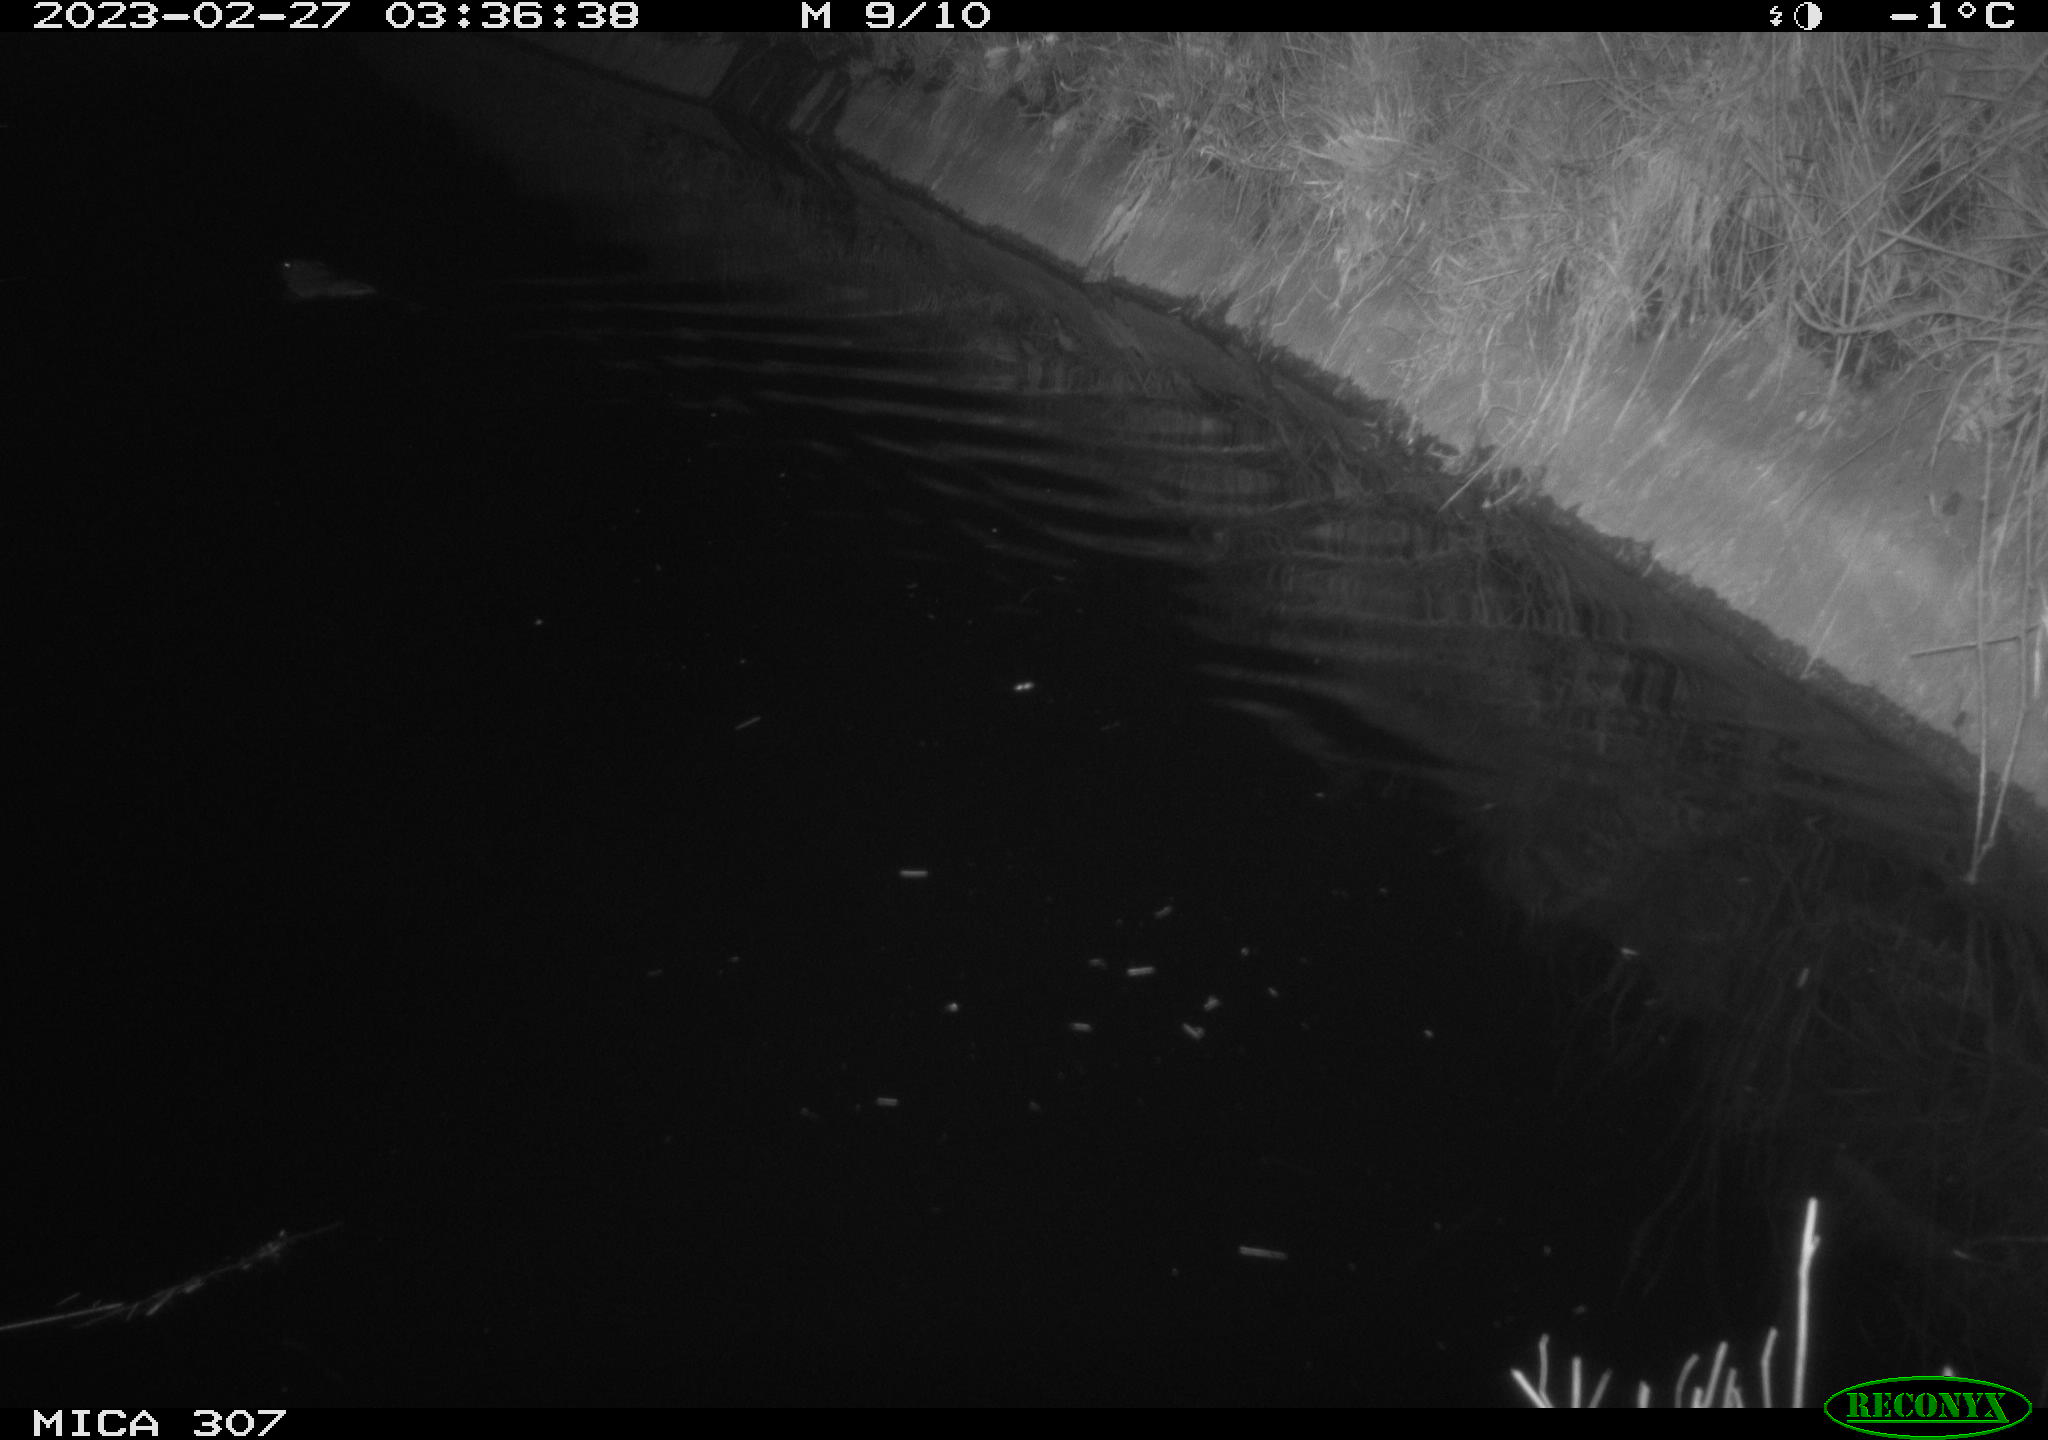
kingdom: Animalia
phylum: Chordata
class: Mammalia
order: Rodentia
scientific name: Rodentia
